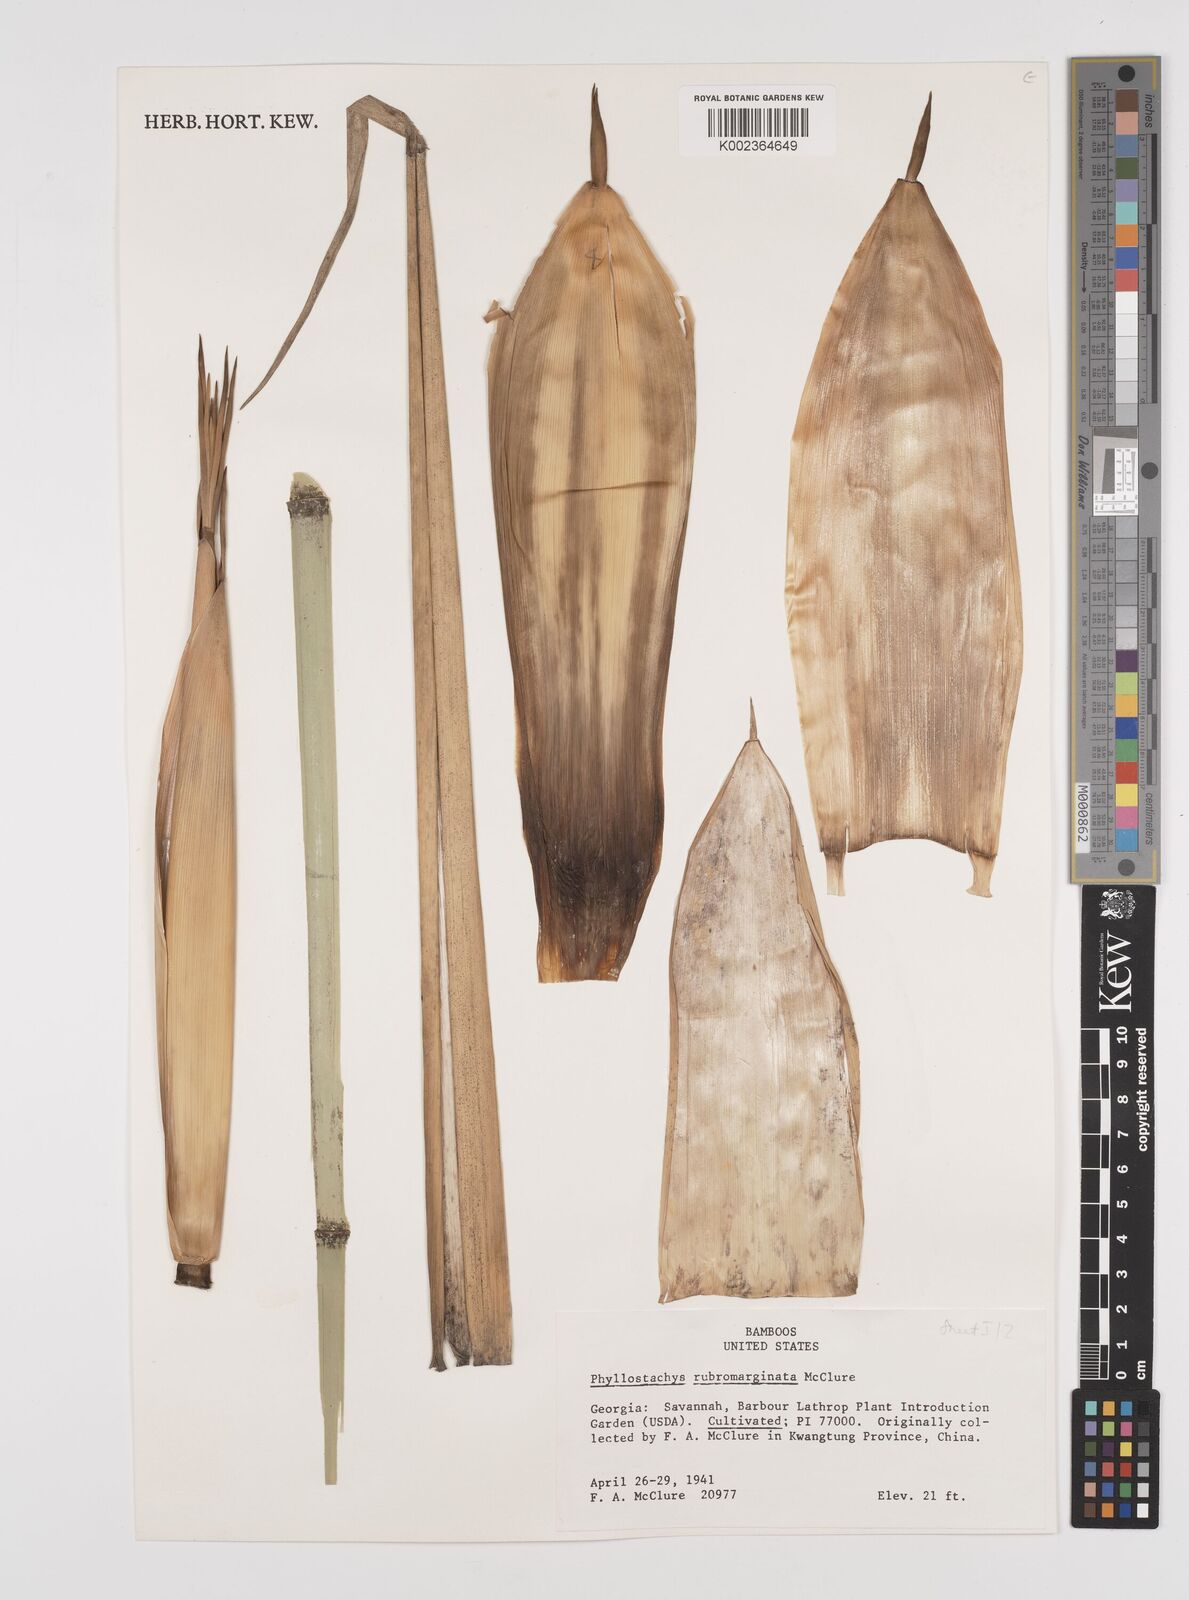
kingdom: Plantae
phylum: Tracheophyta
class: Liliopsida
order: Poales
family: Poaceae
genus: Phyllostachys
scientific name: Phyllostachys rubromarginata
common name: Reddish bamboo
